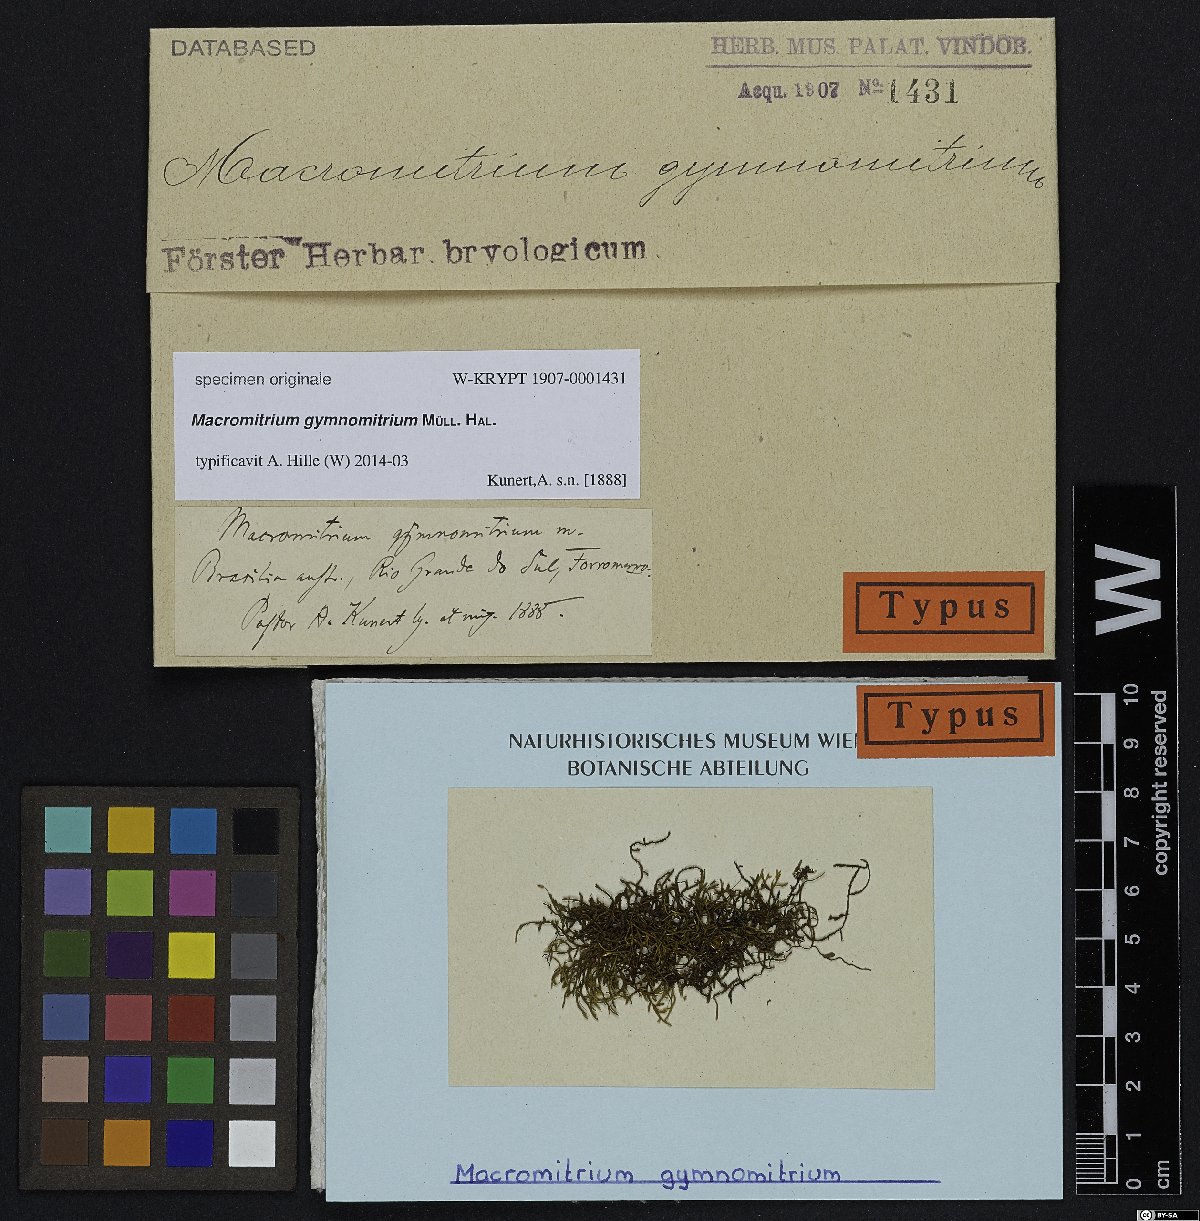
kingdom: Plantae
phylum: Bryophyta
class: Bryopsida
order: Orthotrichales
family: Orthotrichaceae
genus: Macromitrium
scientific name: Macromitrium
